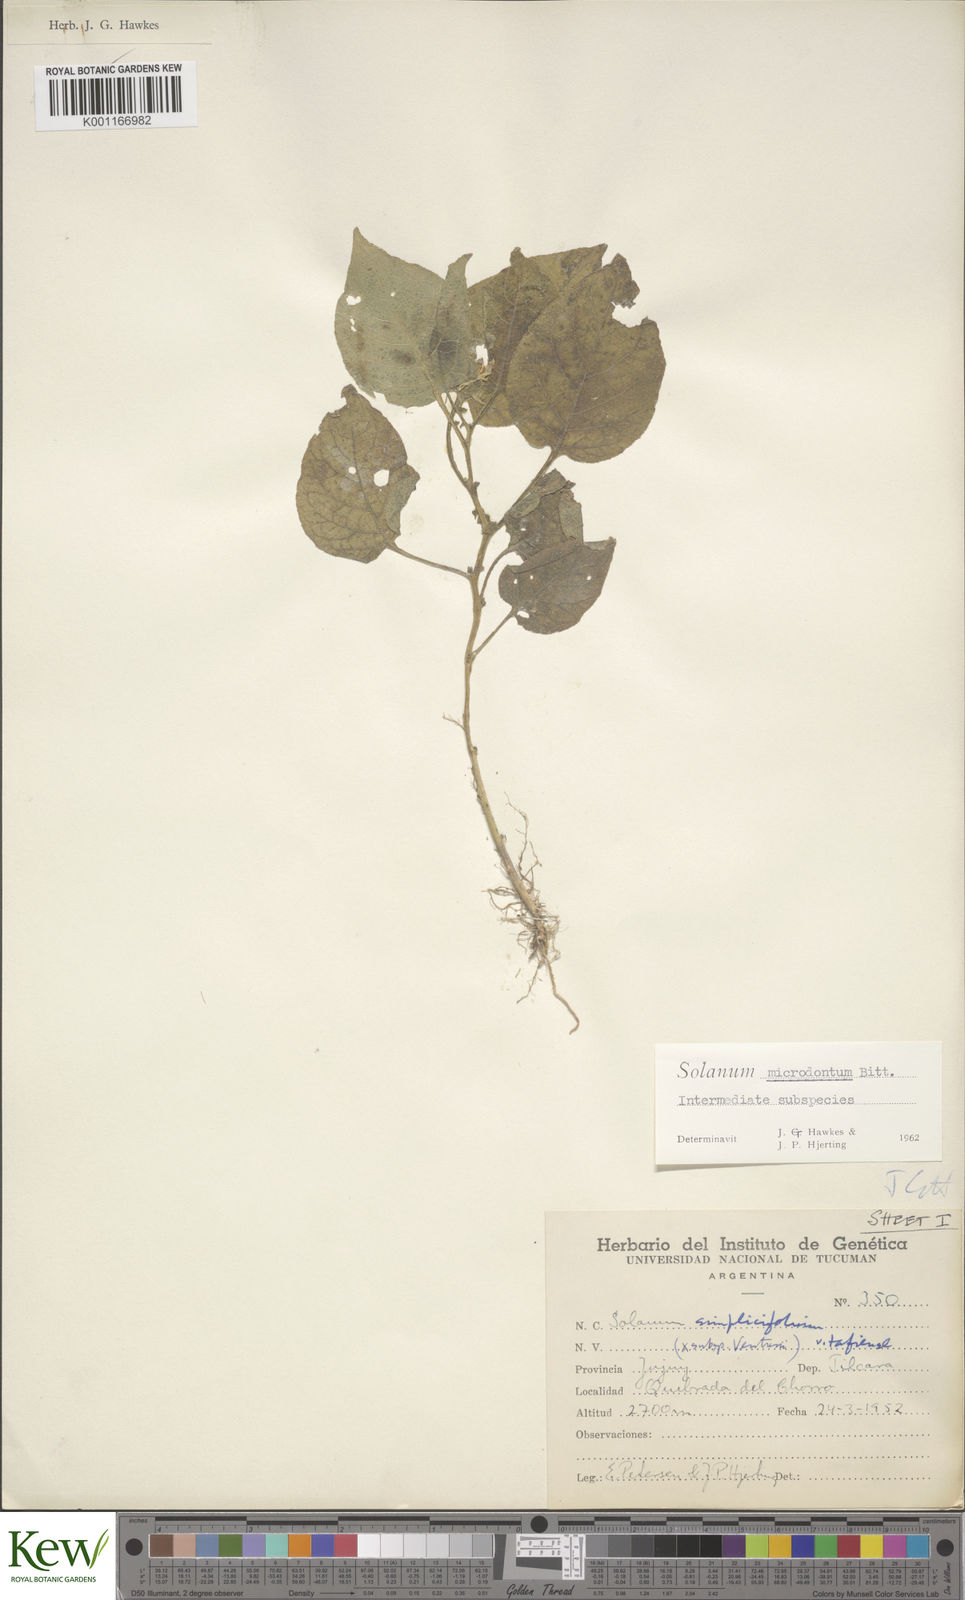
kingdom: Plantae
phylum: Tracheophyta
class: Magnoliopsida
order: Solanales
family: Solanaceae
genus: Solanum
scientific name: Solanum microdontum
